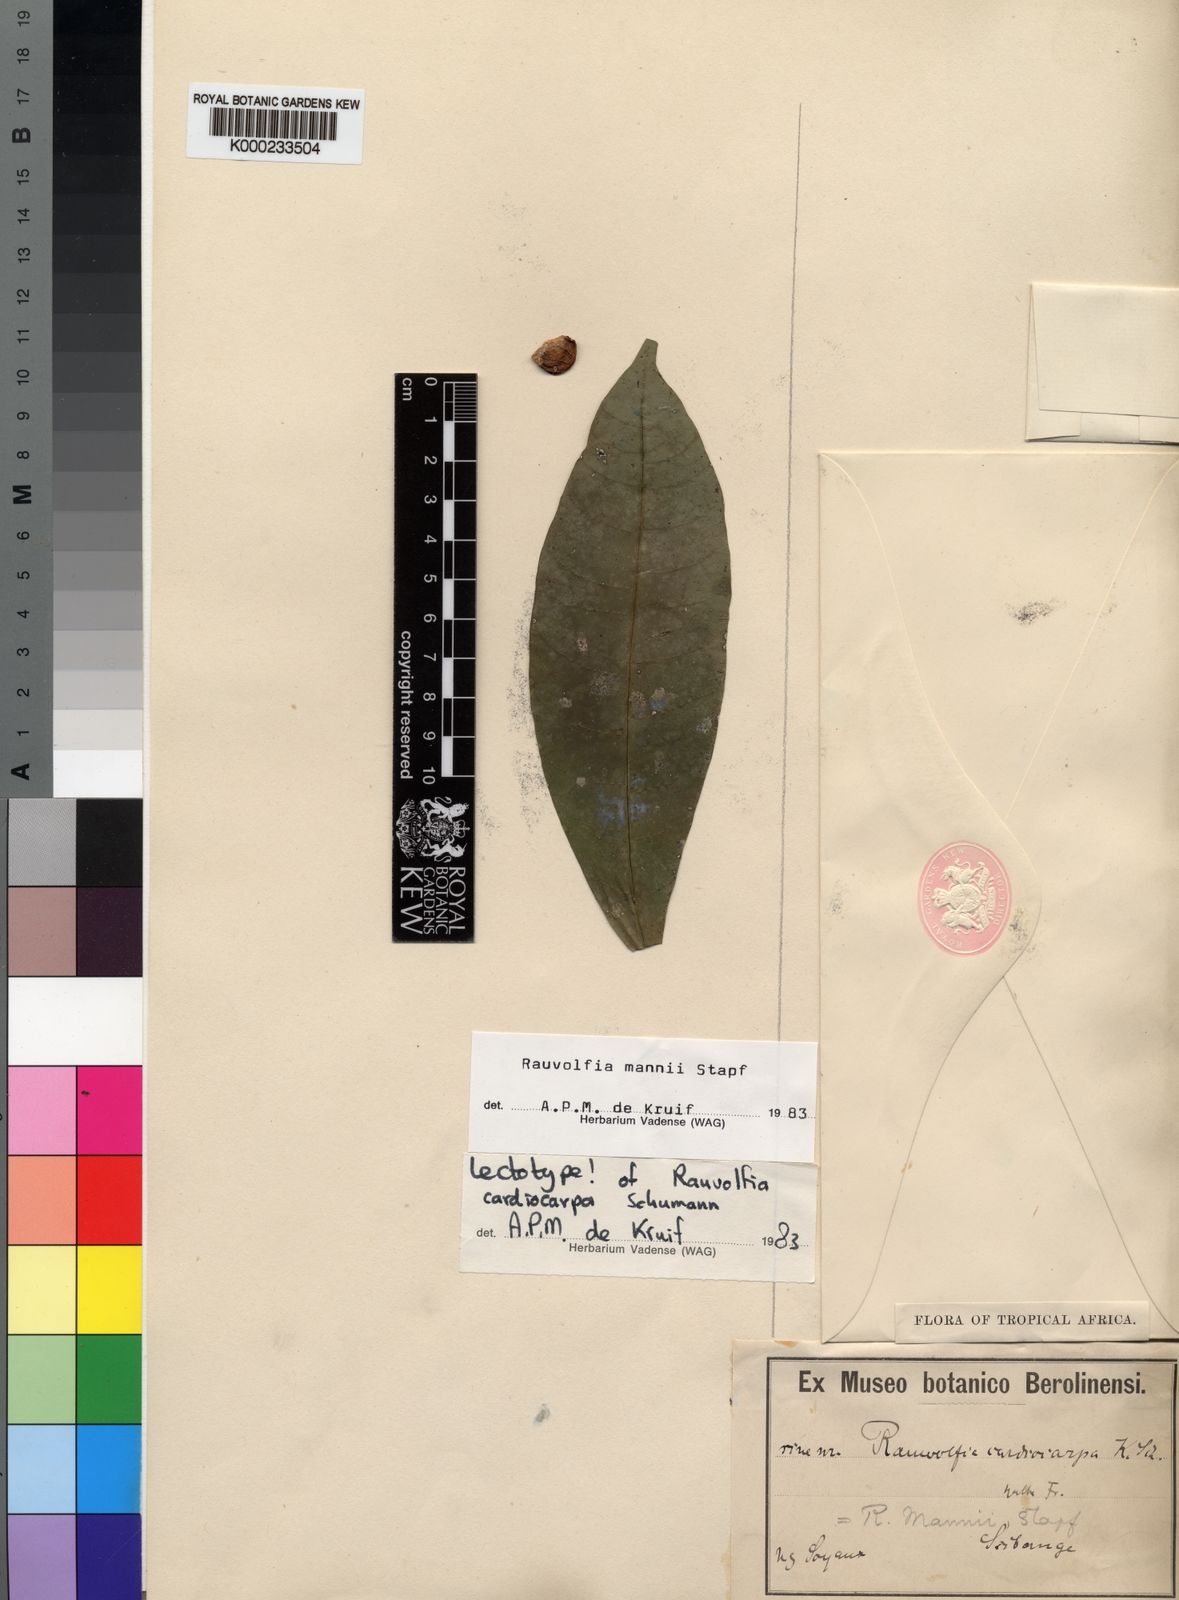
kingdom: Plantae
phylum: Tracheophyta
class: Magnoliopsida
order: Gentianales
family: Apocynaceae
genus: Rauvolfia
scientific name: Rauvolfia mannii
